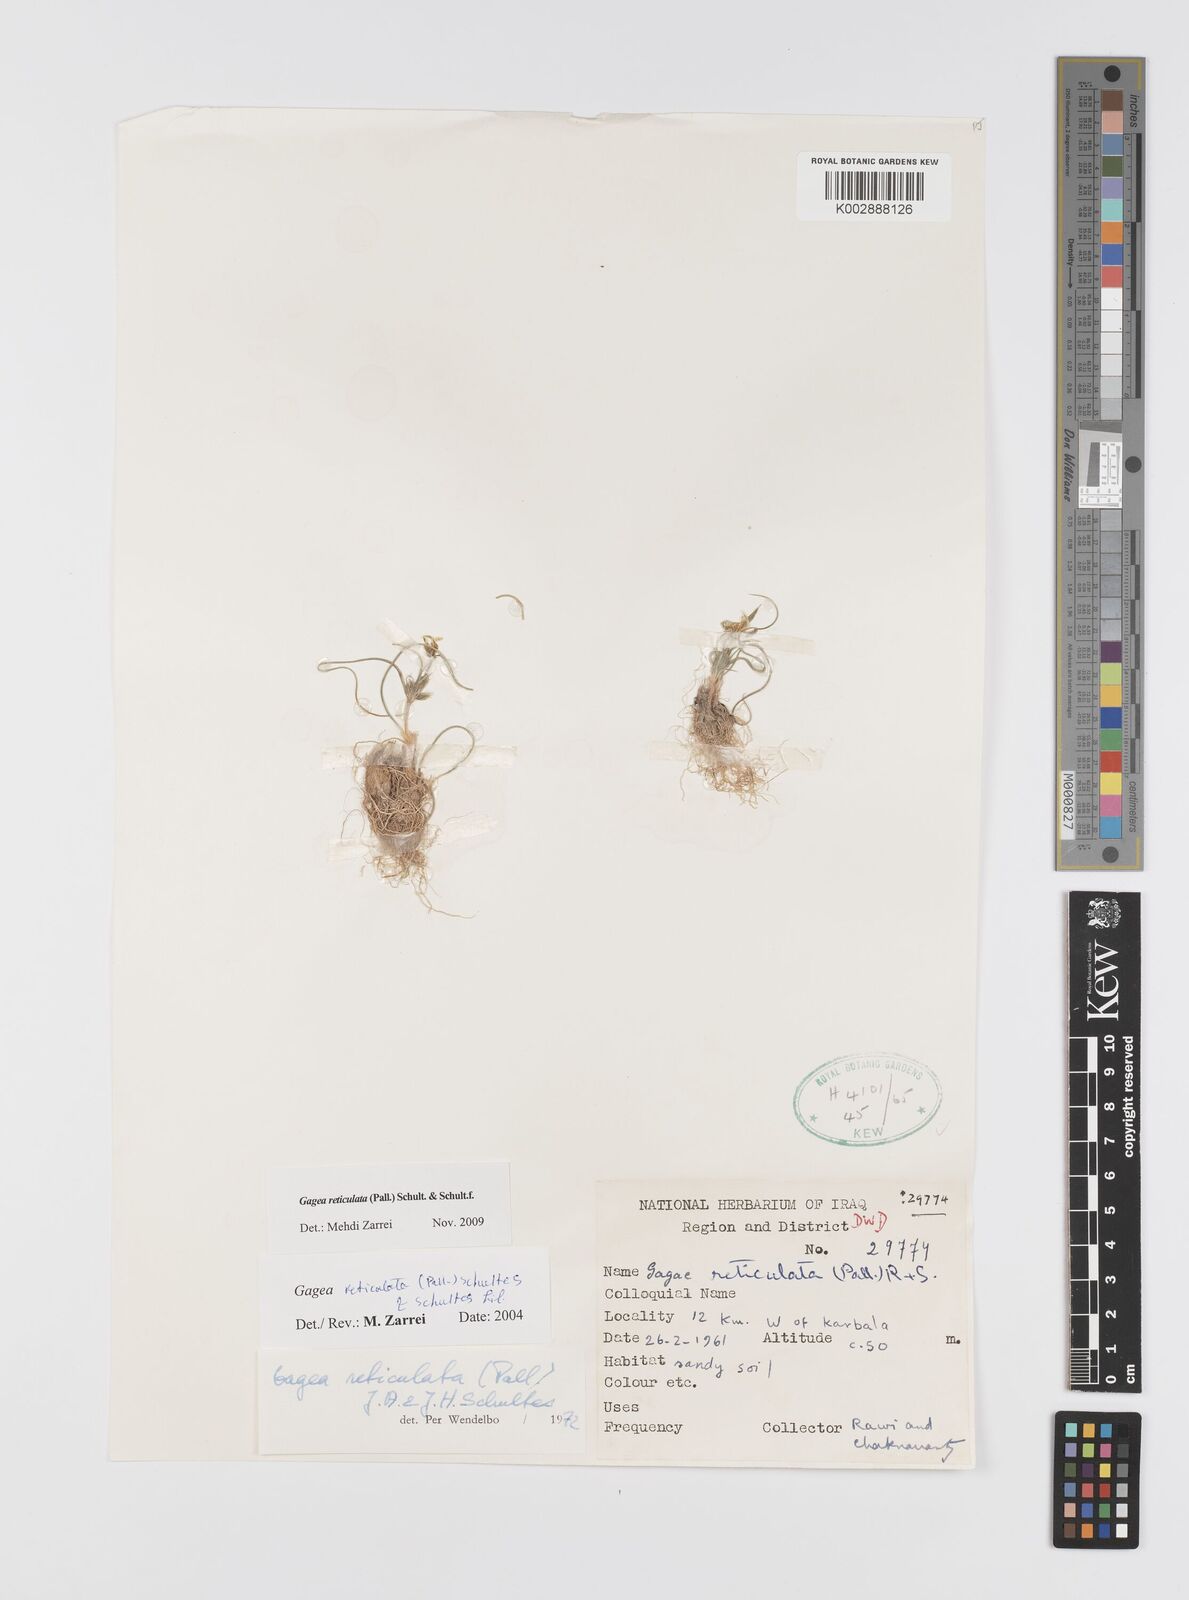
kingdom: Plantae
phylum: Tracheophyta
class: Liliopsida
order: Liliales
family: Liliaceae
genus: Gagea
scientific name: Gagea reticulata
